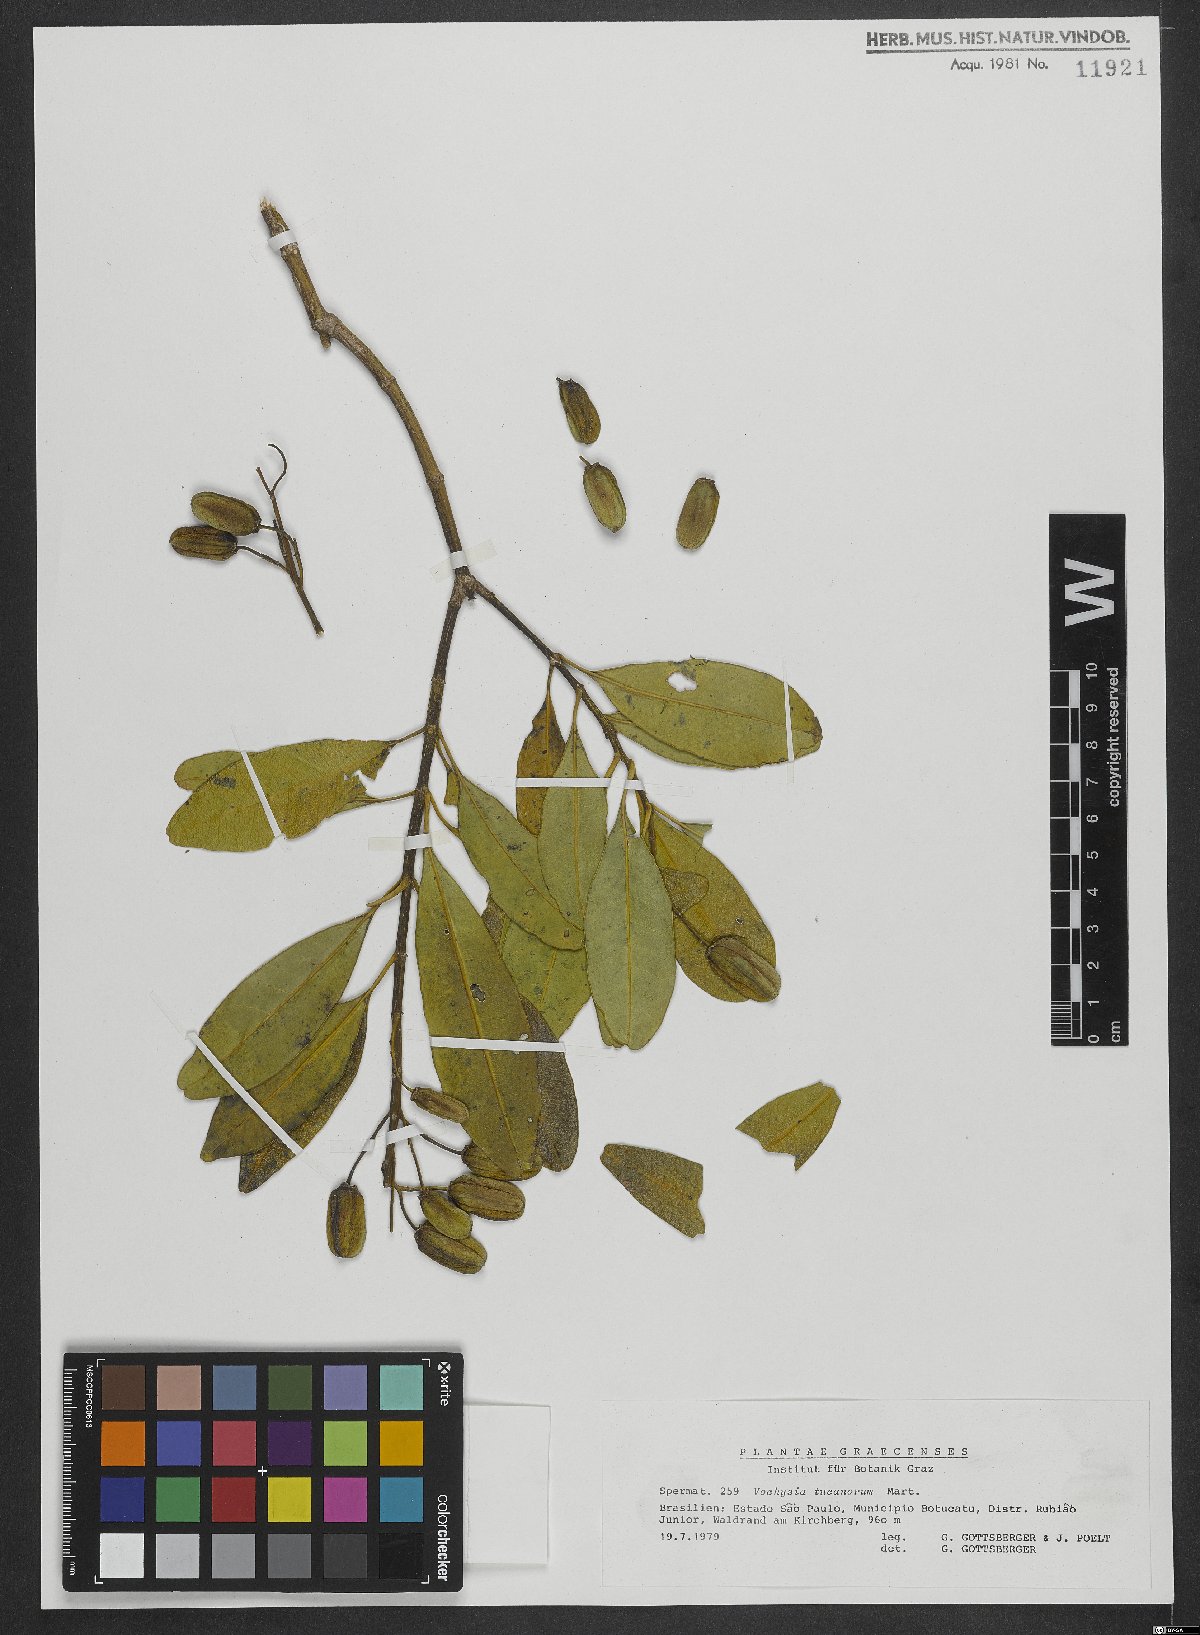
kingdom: Plantae
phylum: Tracheophyta
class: Magnoliopsida
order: Myrtales
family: Vochysiaceae
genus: Vochysia
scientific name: Vochysia tucanorum
